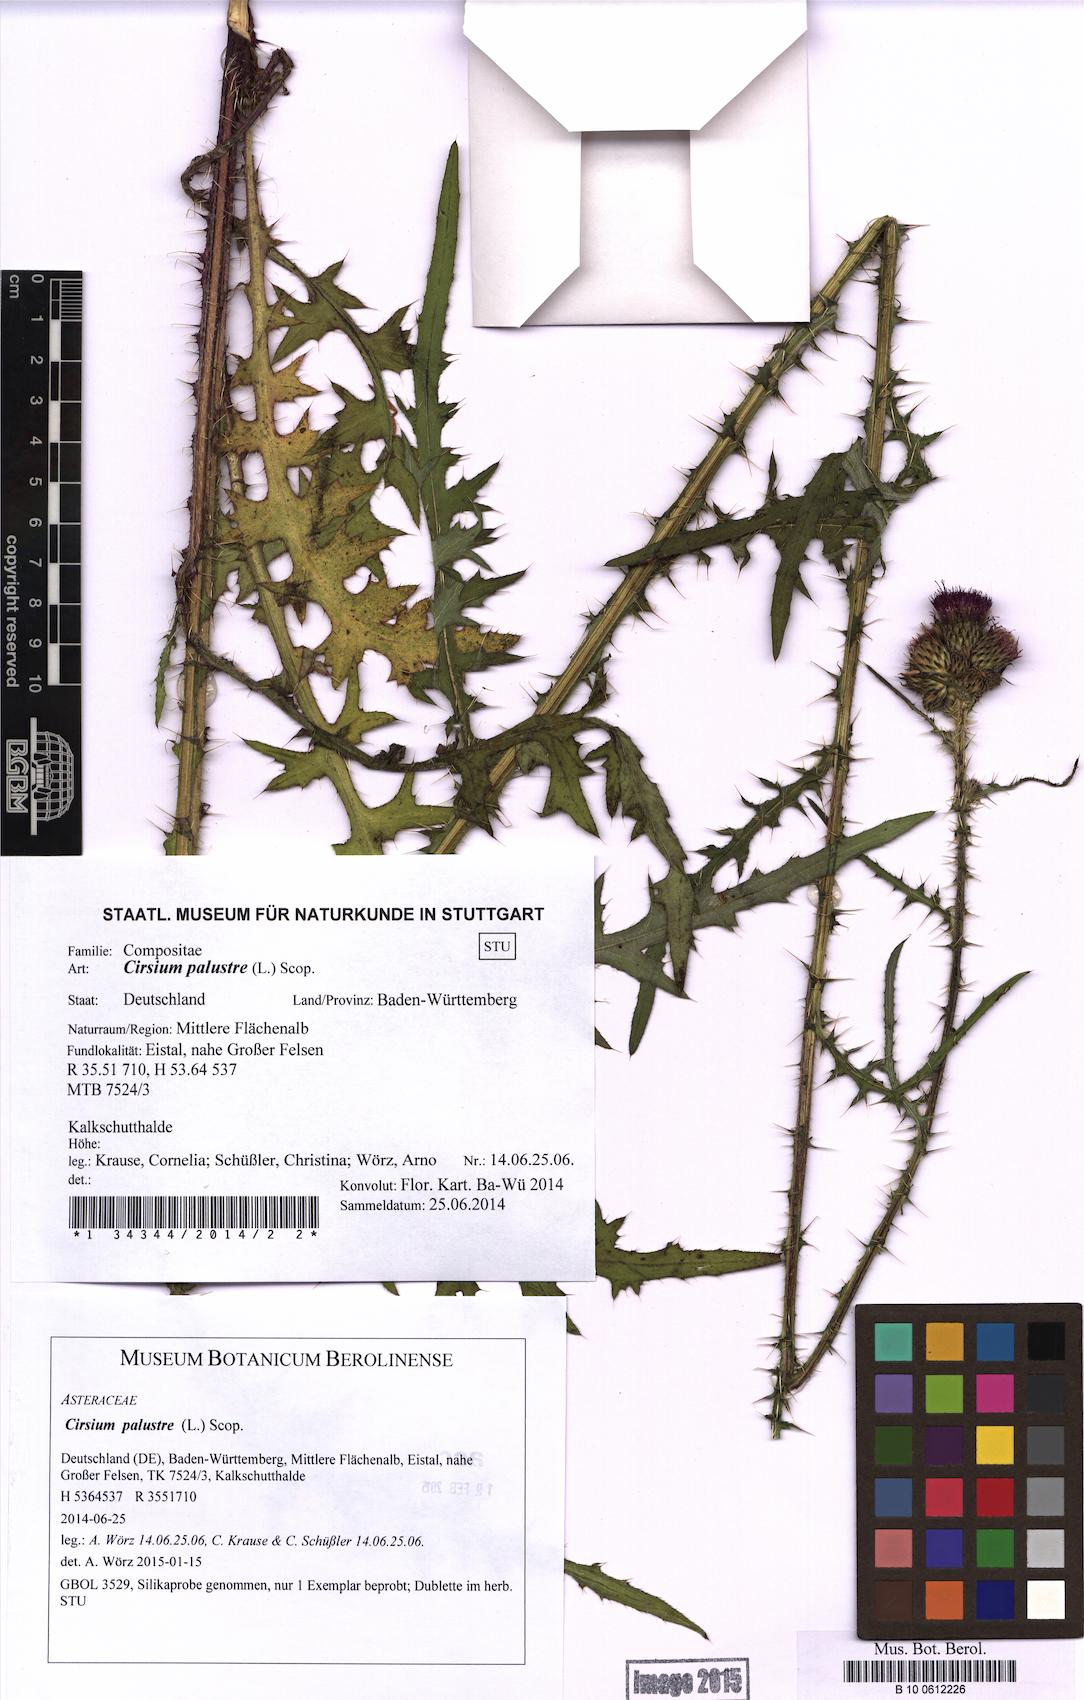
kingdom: Plantae
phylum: Tracheophyta
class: Magnoliopsida
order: Asterales
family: Asteraceae
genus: Cirsium
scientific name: Cirsium palustre
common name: Marsh thistle
